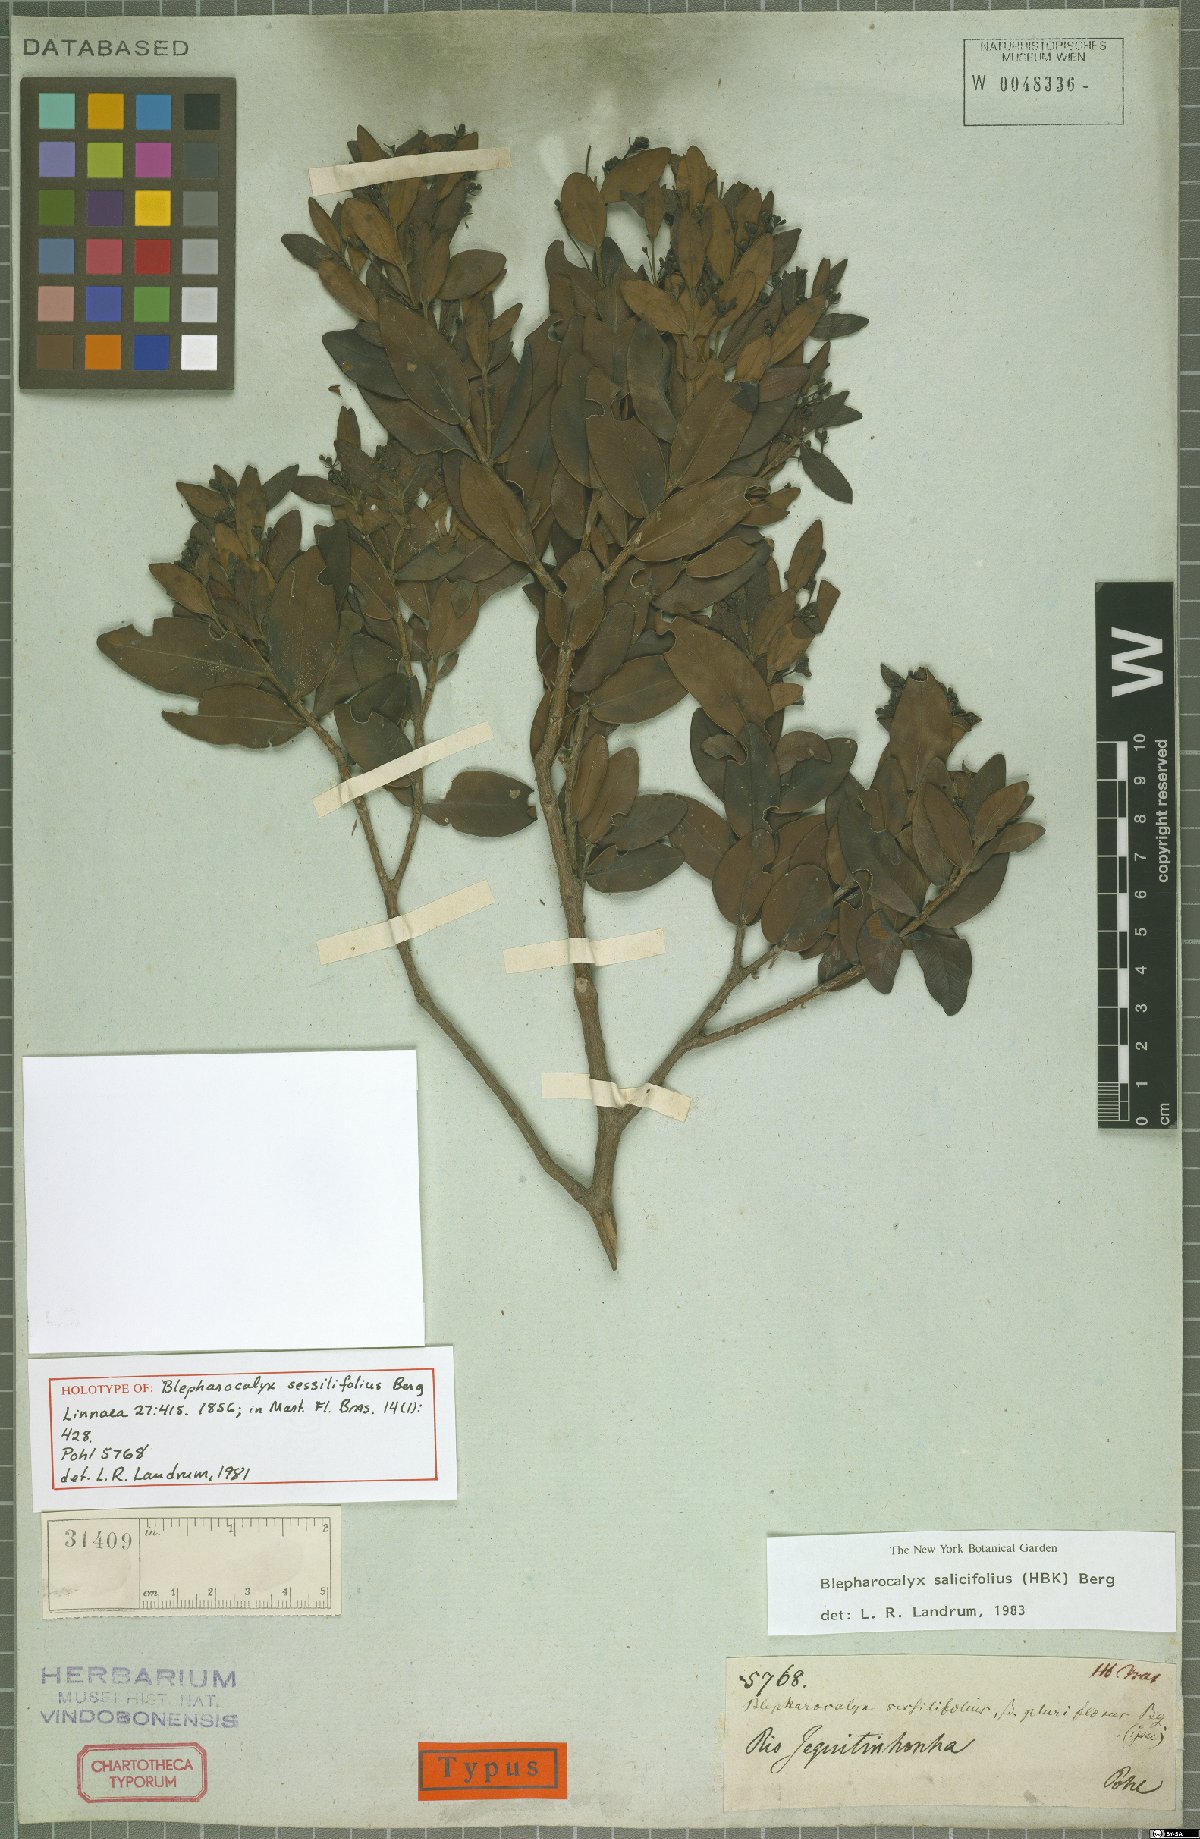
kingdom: Plantae
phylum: Tracheophyta
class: Magnoliopsida
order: Myrtales
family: Myrtaceae
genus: Blepharocalyx
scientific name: Blepharocalyx salicifolius
